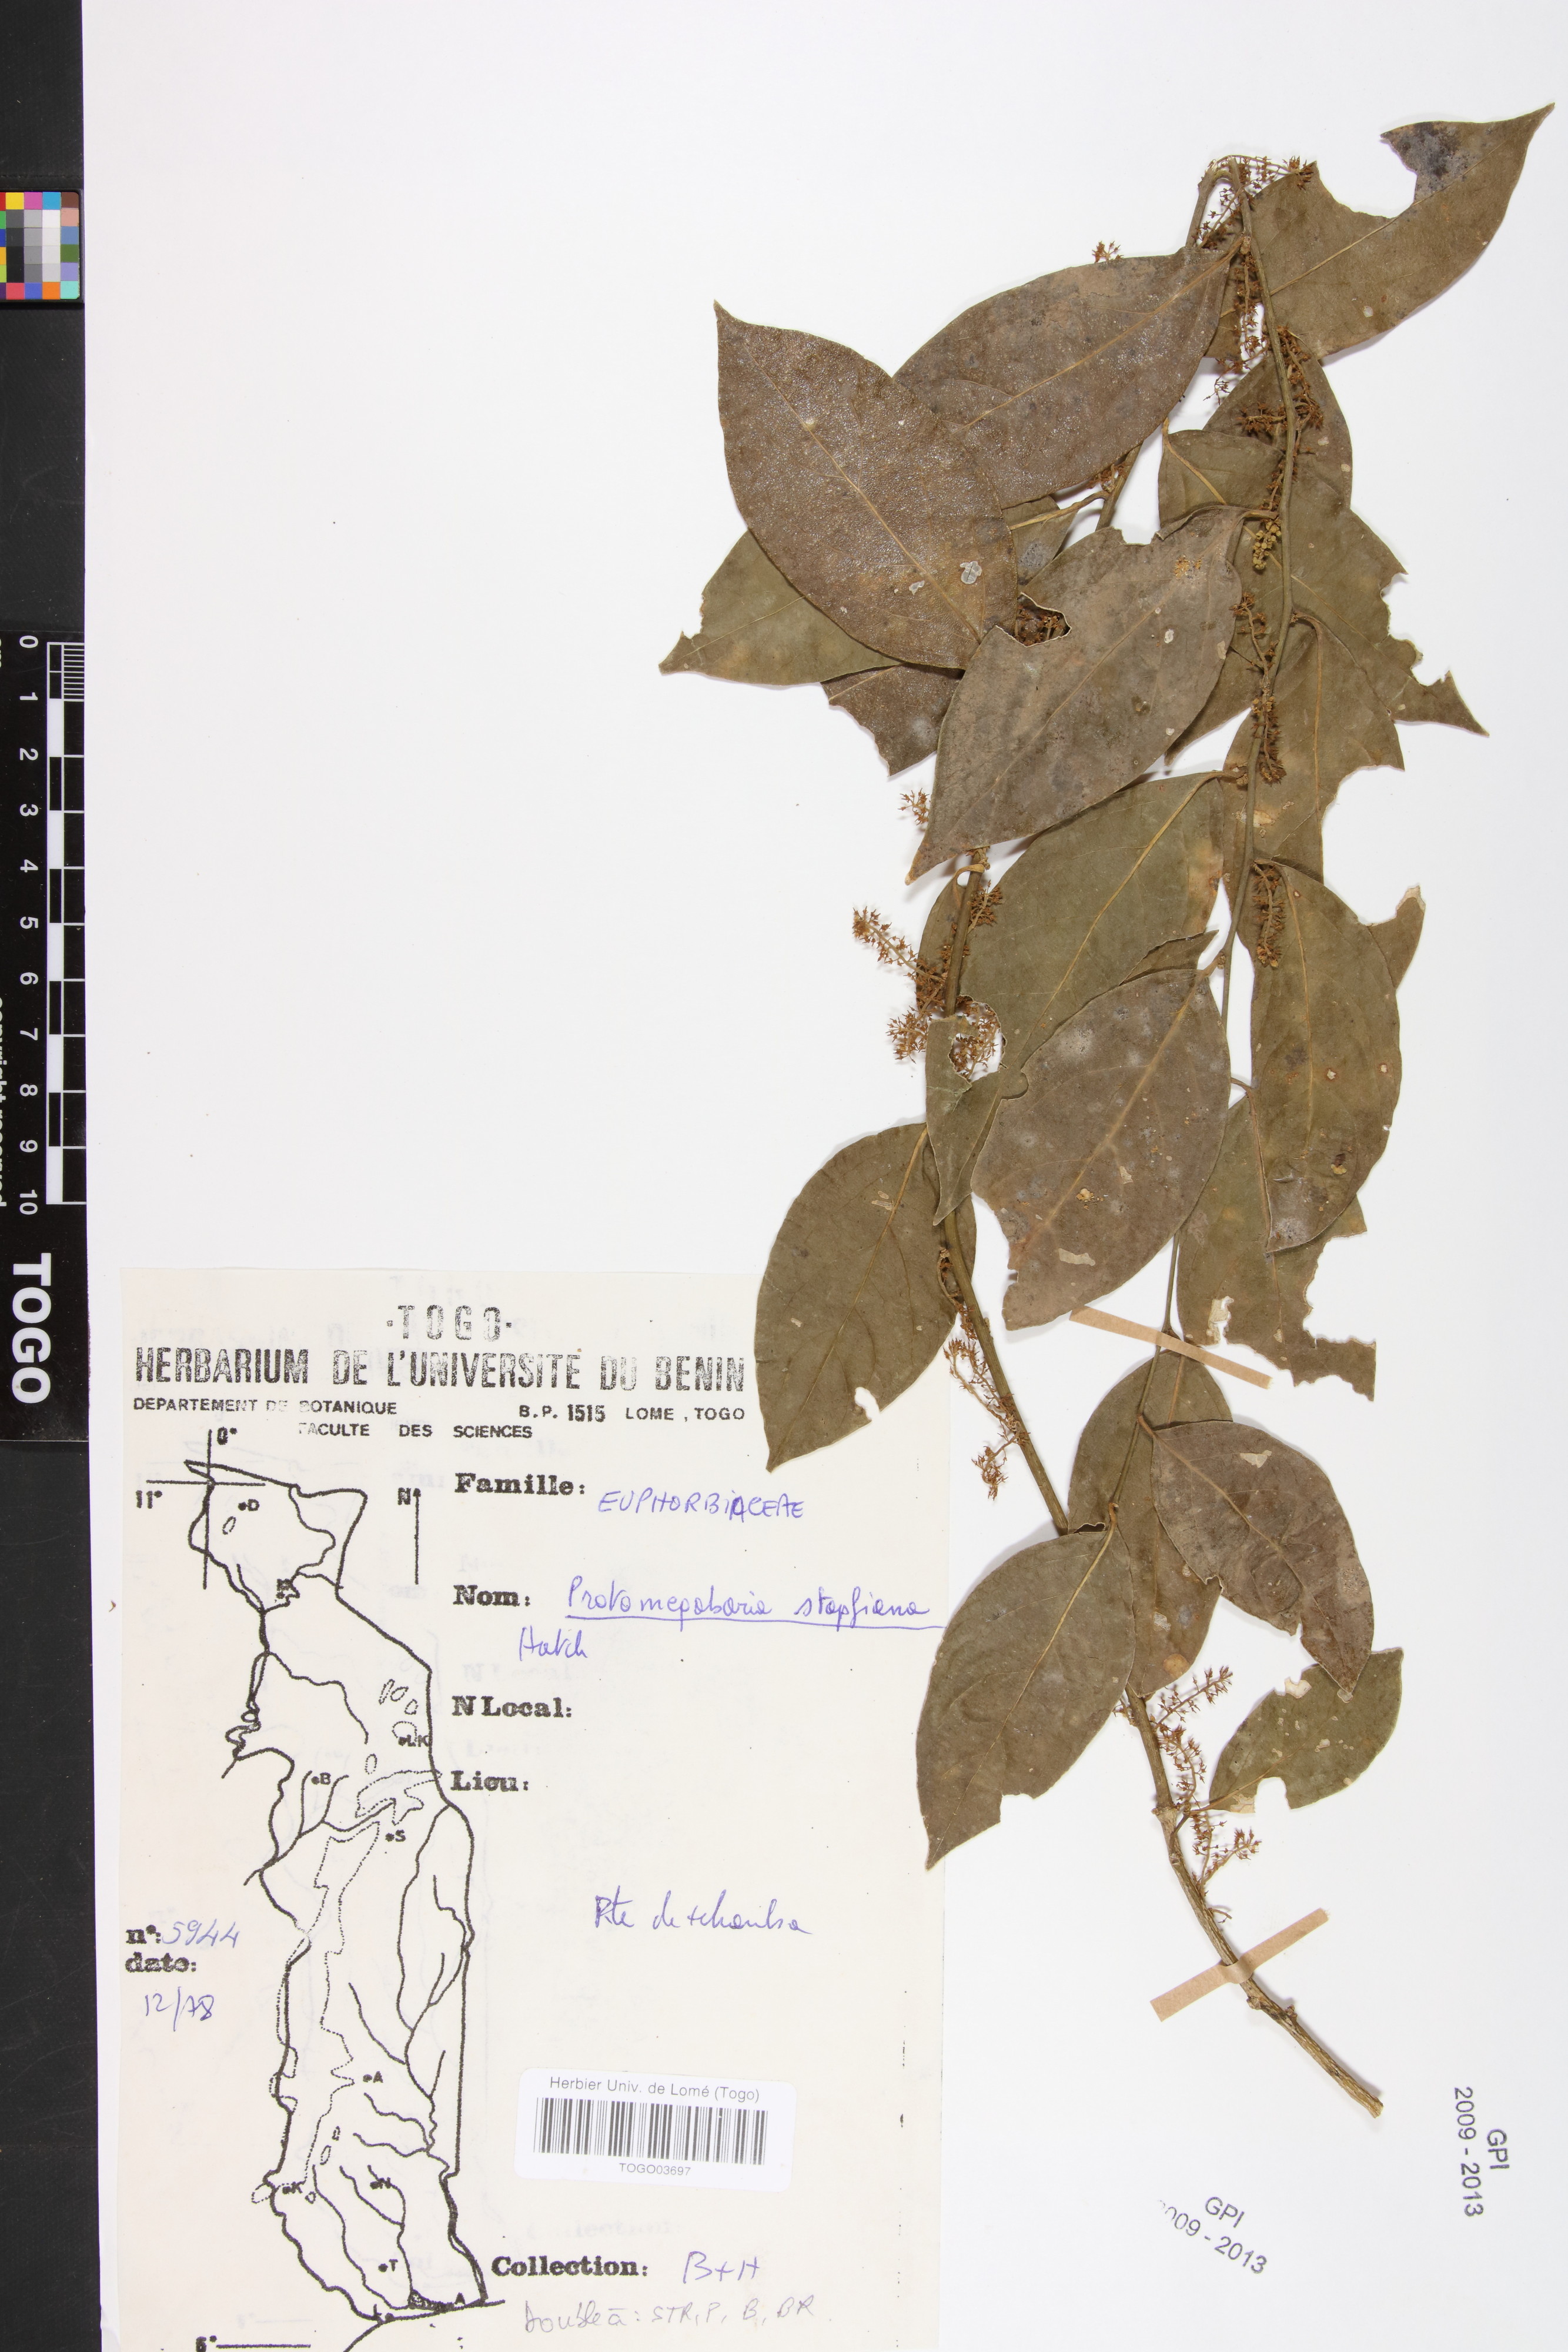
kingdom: Plantae
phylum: Tracheophyta
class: Magnoliopsida
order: Malpighiales
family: Phyllanthaceae
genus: Protomegabaria
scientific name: Protomegabaria stapfiana
